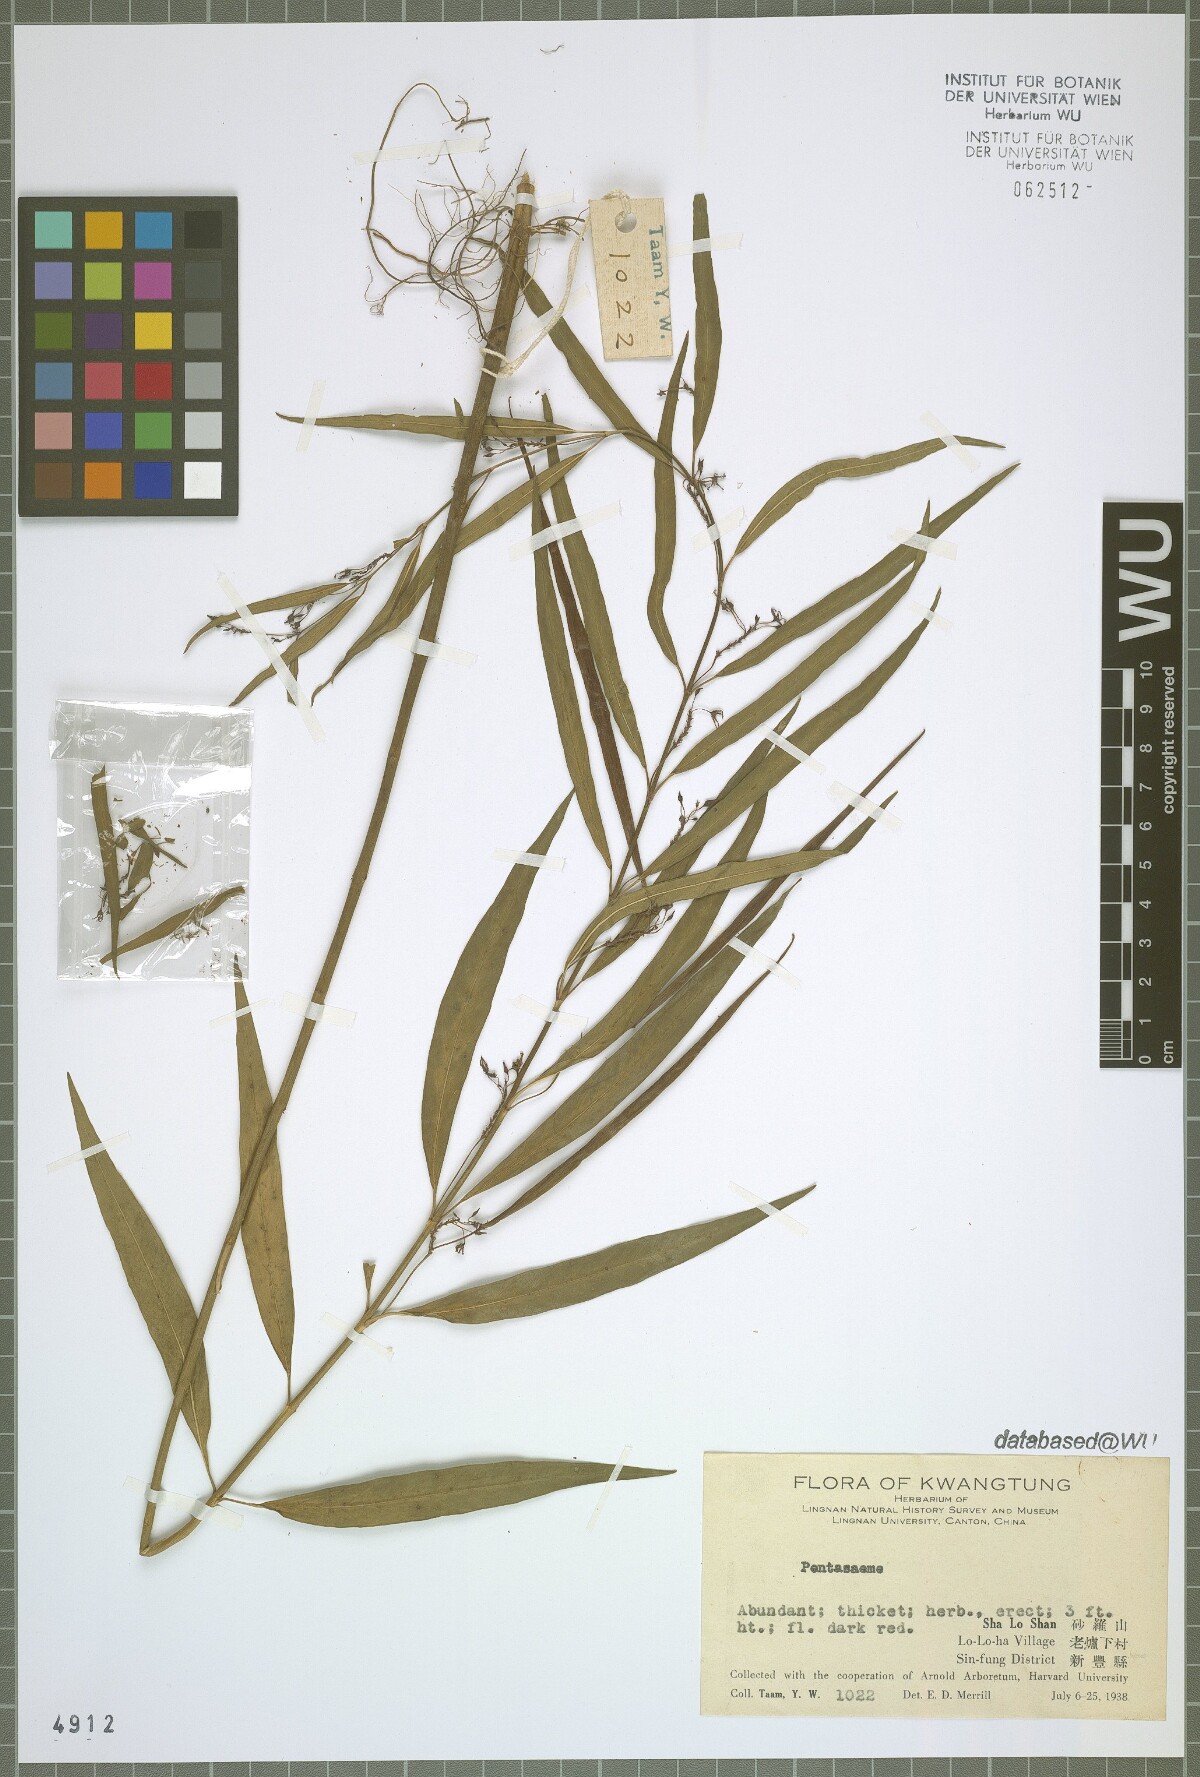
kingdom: Plantae
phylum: Tracheophyta
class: Magnoliopsida
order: Gentianales
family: Apocynaceae
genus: Pentasacme
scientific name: Pentasacme
